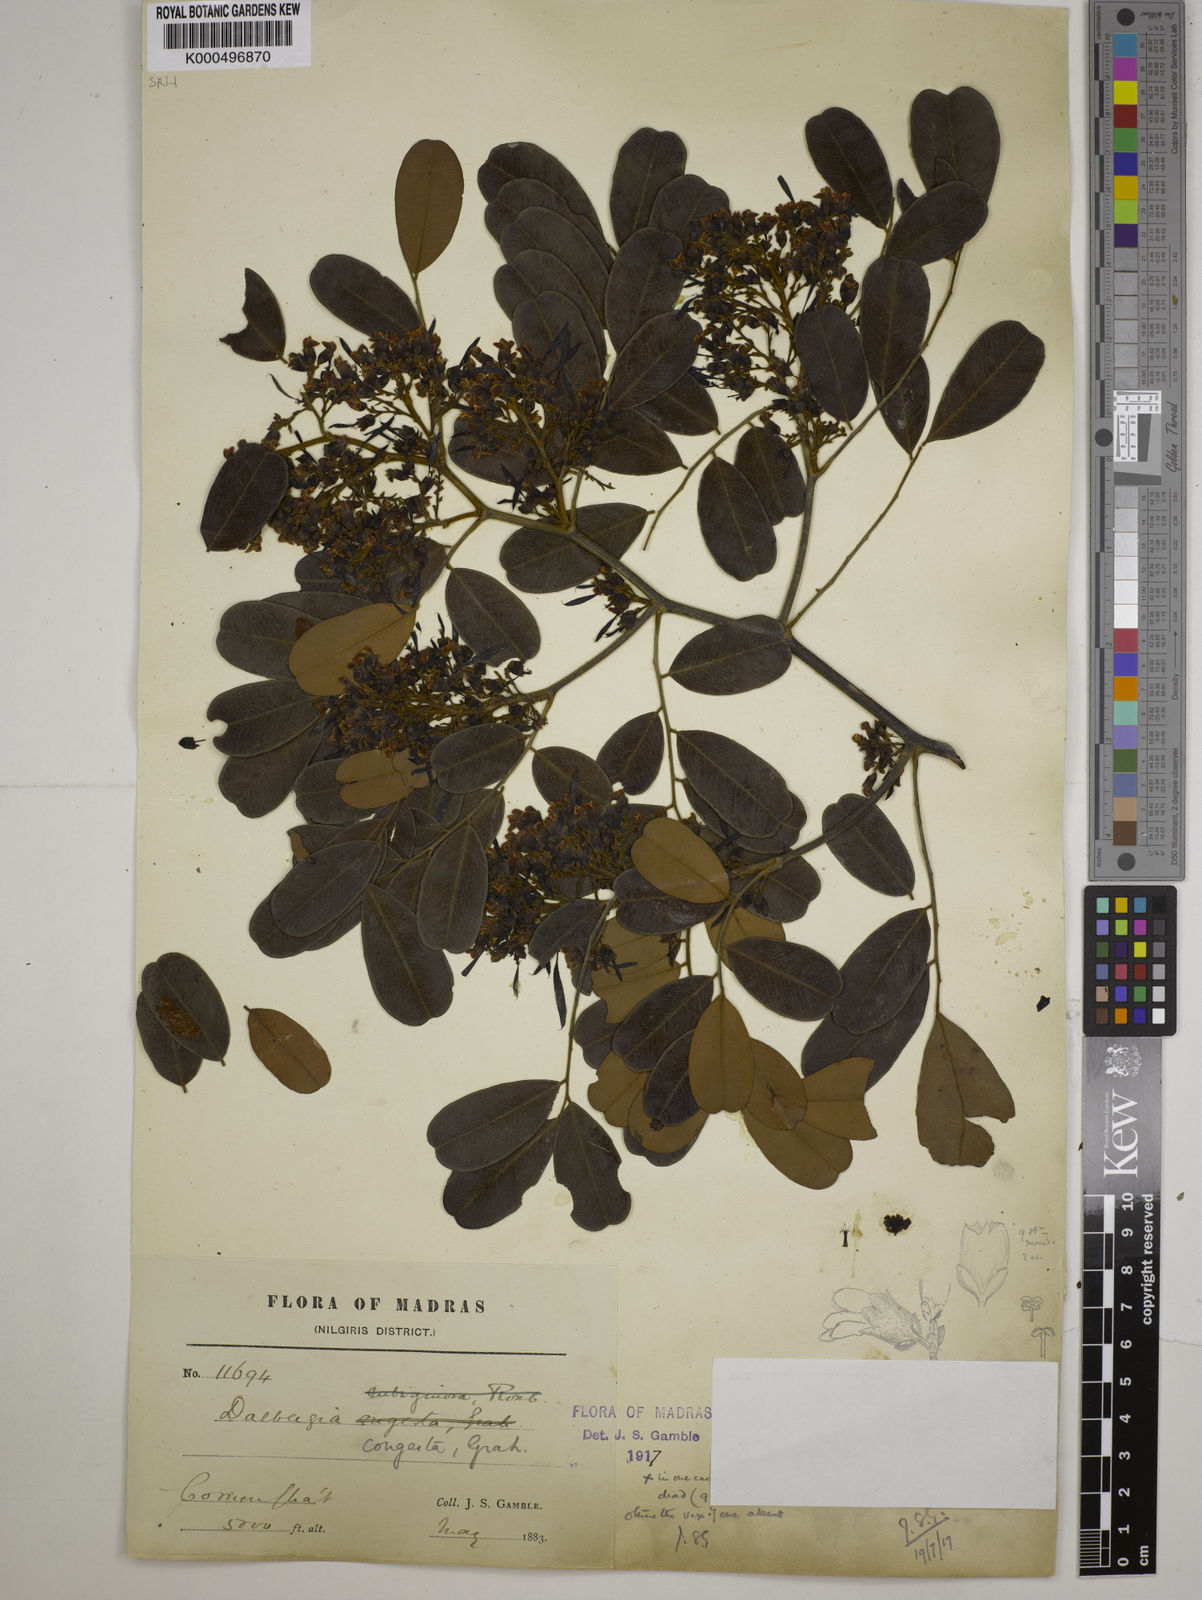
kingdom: Plantae
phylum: Tracheophyta
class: Magnoliopsida
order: Fabales
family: Fabaceae
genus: Dalbergia
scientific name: Dalbergia congesta
